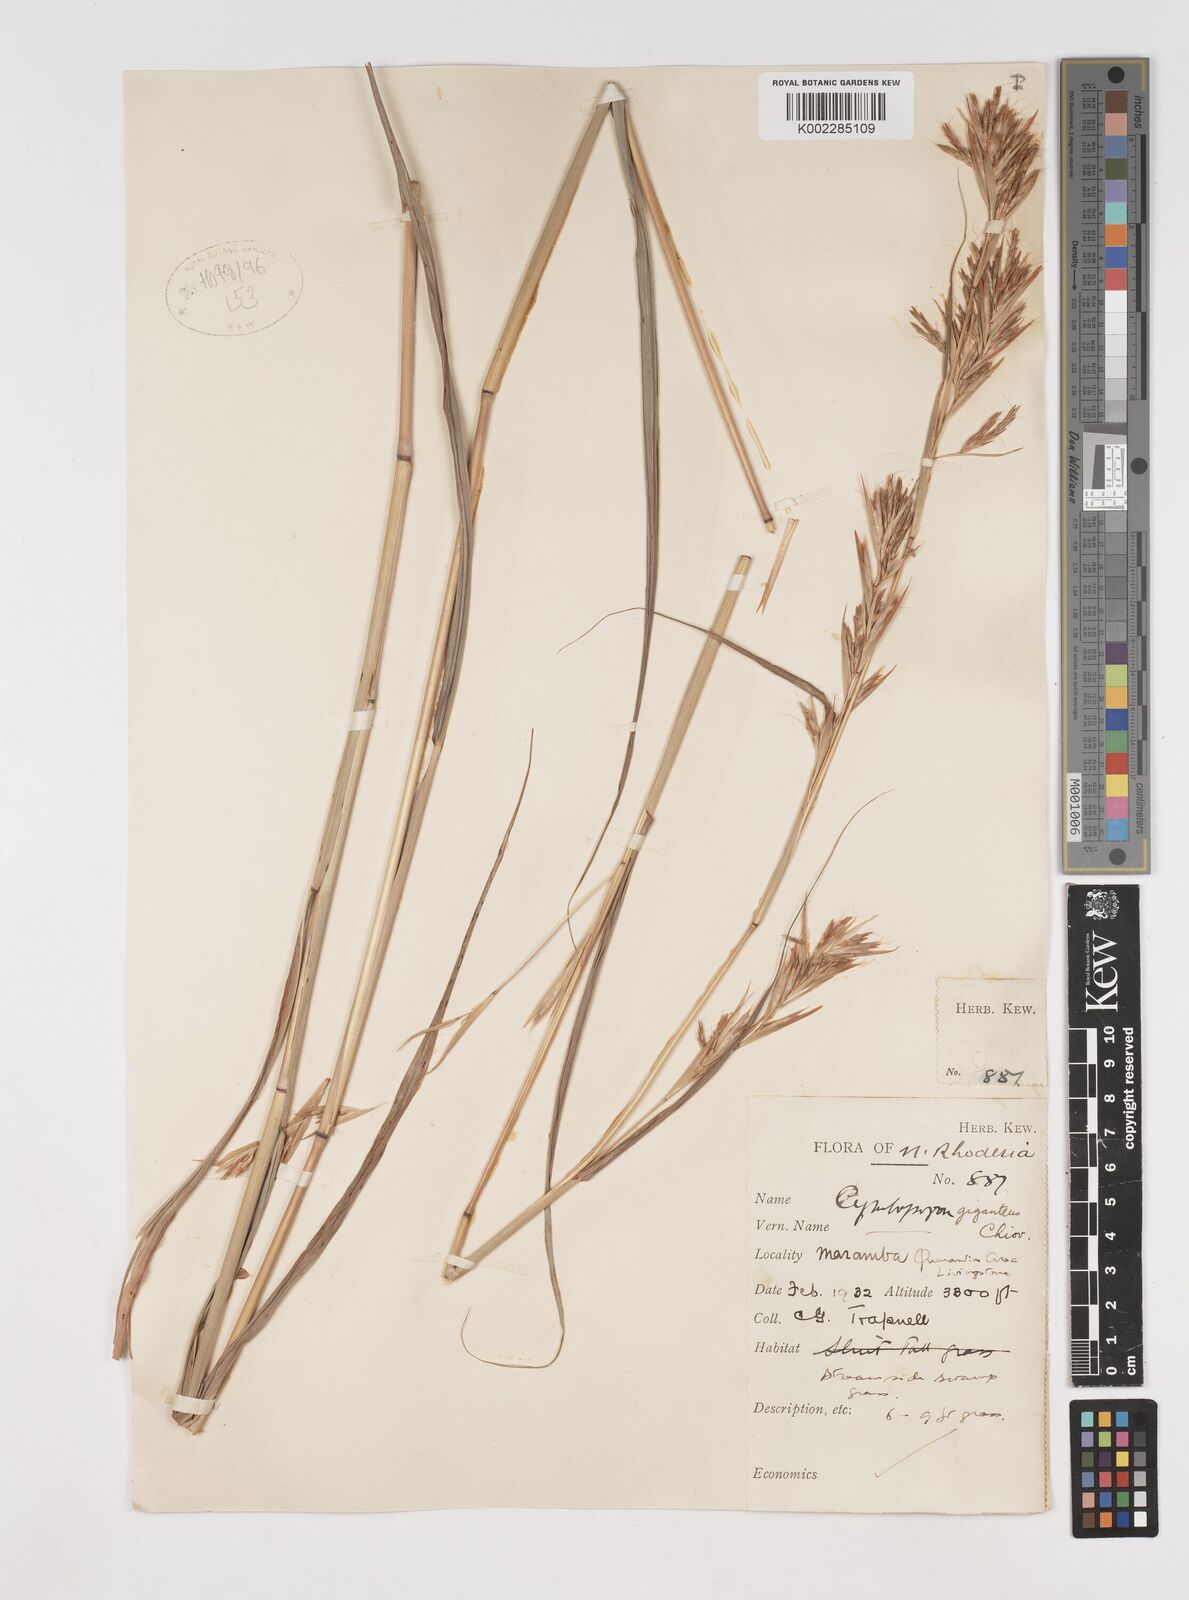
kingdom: Plantae
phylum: Tracheophyta
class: Liliopsida
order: Poales
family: Poaceae
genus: Cymbopogon
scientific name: Cymbopogon giganteus
